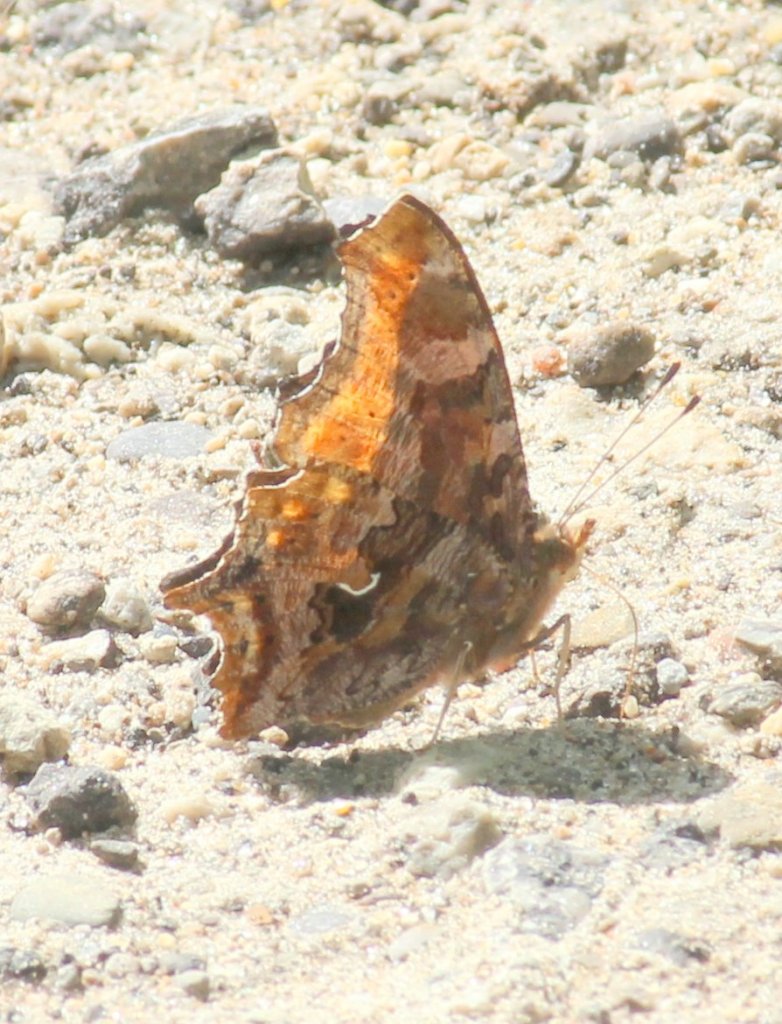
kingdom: Animalia
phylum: Arthropoda
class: Insecta
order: Lepidoptera
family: Nymphalidae
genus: Polygonia
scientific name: Polygonia comma
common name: Eastern Comma
